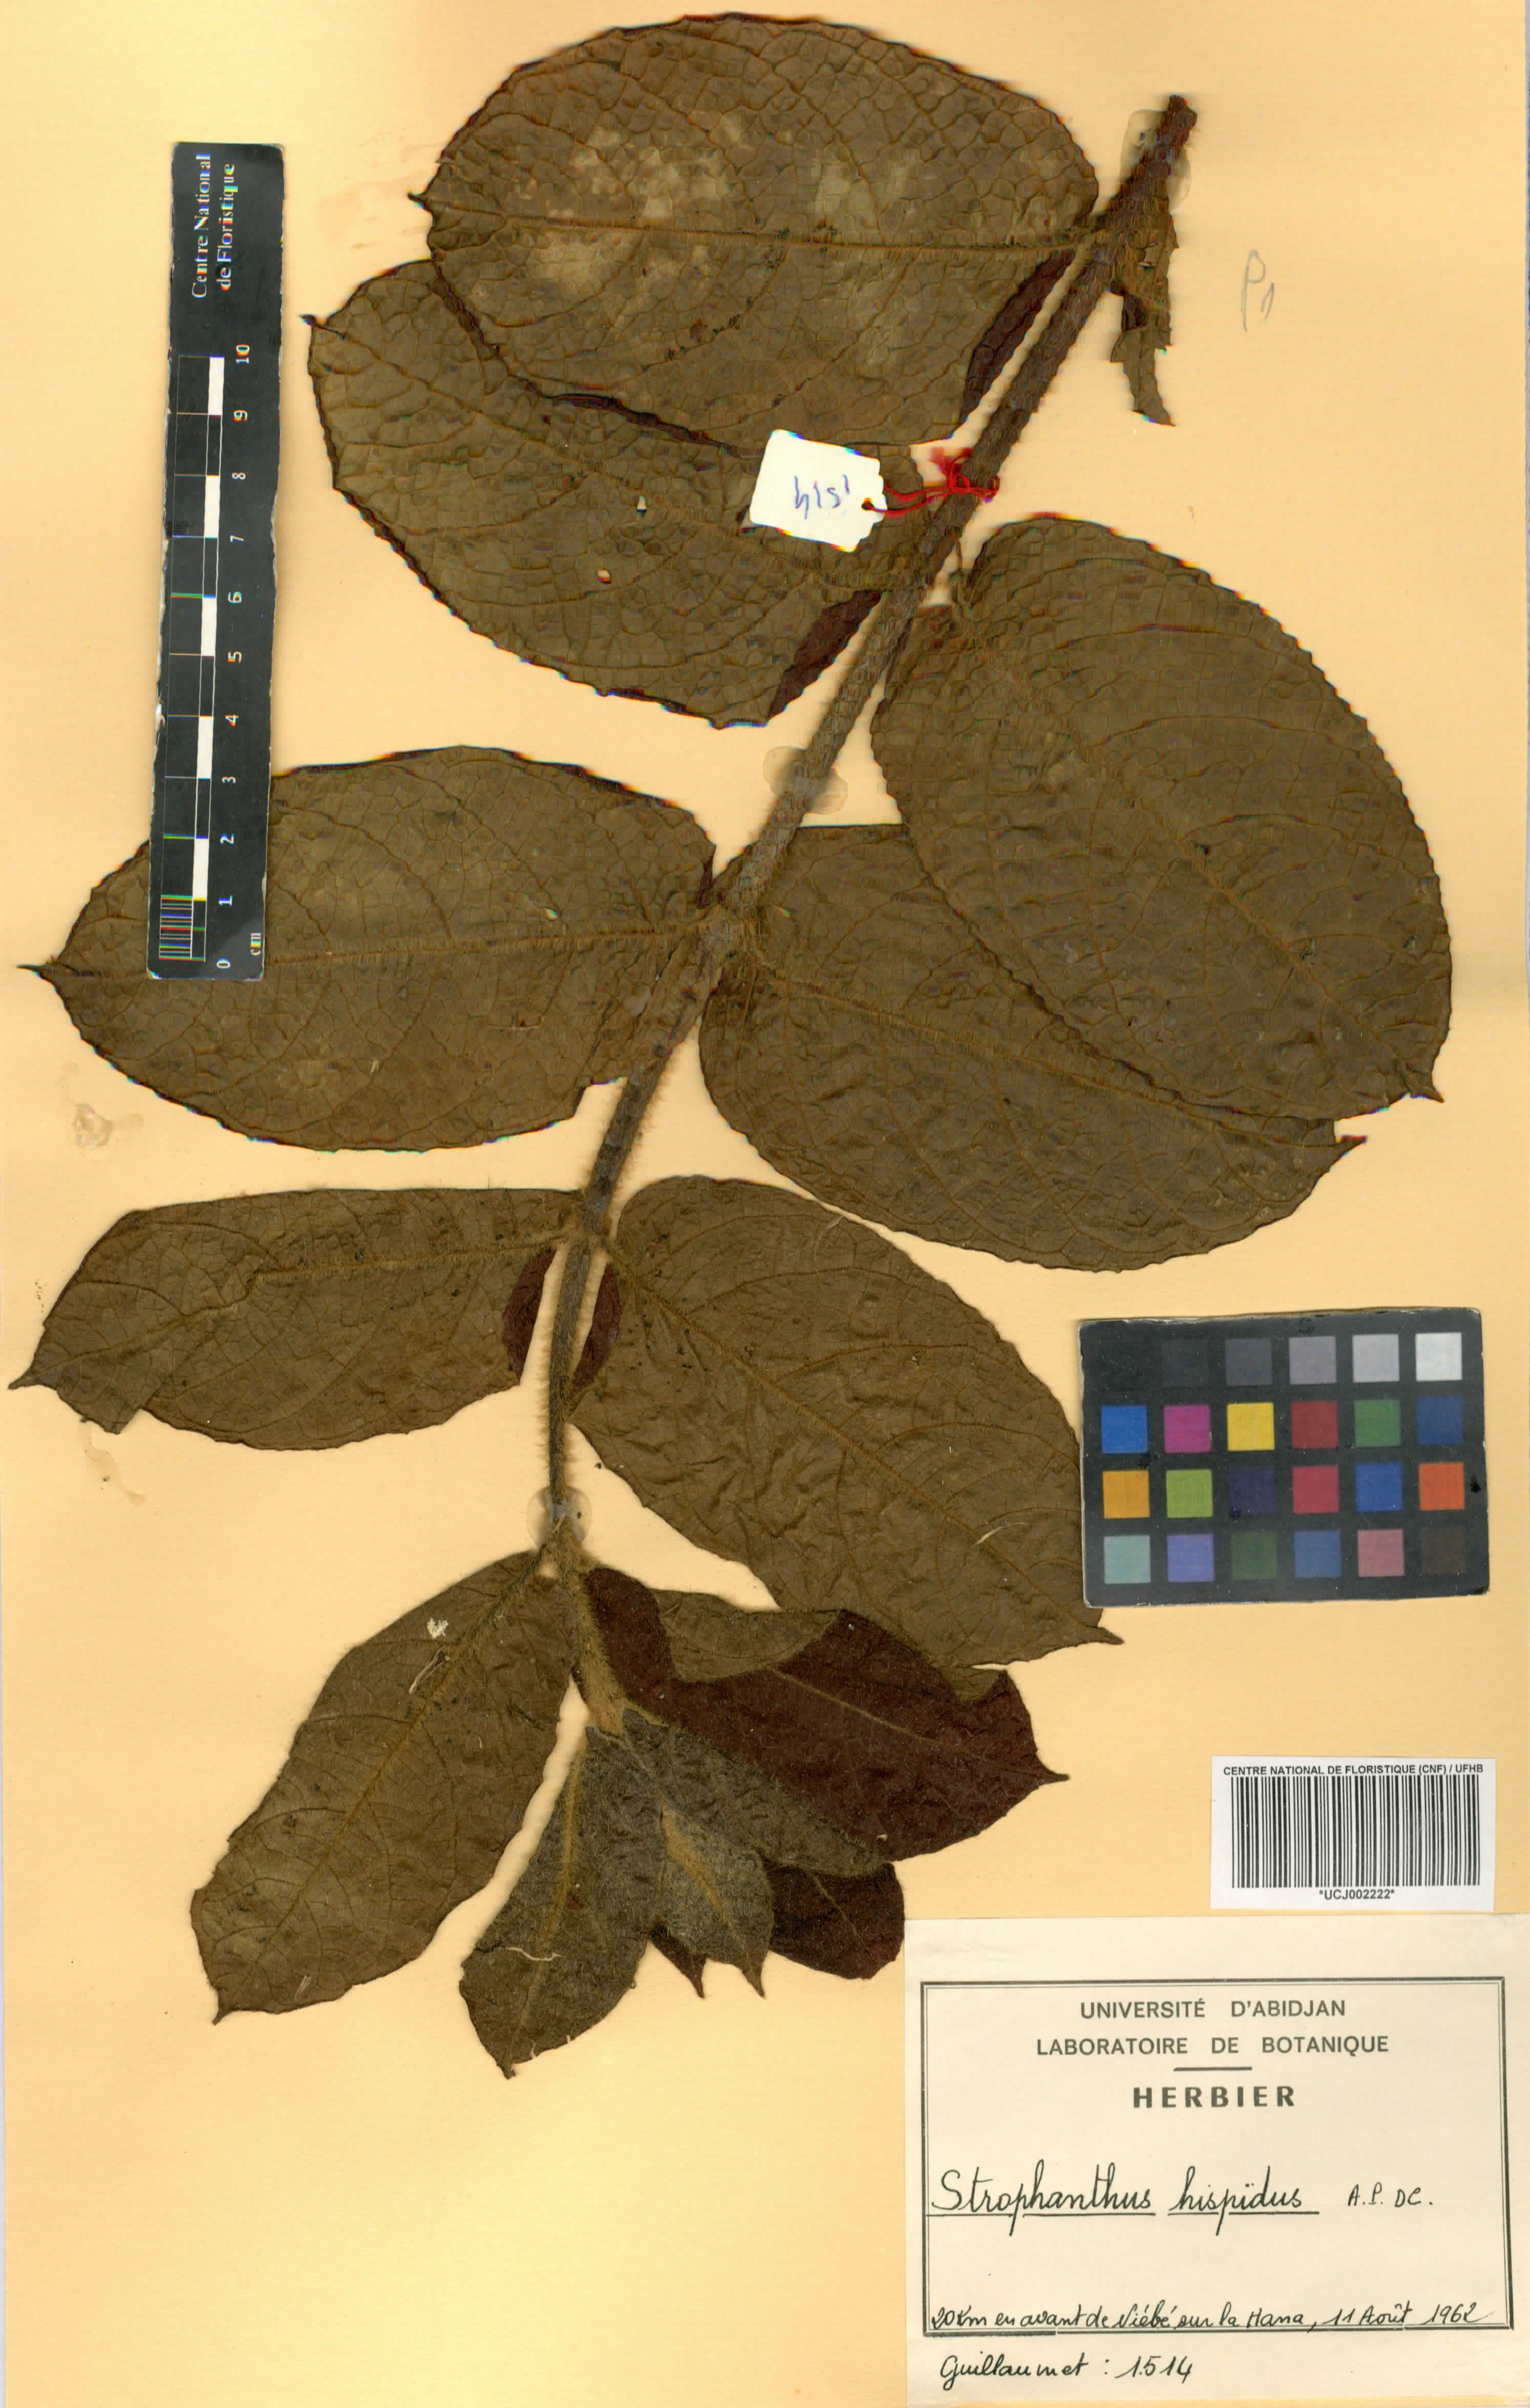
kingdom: Plantae
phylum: Tracheophyta
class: Magnoliopsida
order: Gentianales
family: Apocynaceae
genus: Strophanthus
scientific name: Strophanthus hispidus
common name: Hairy strophanthus
